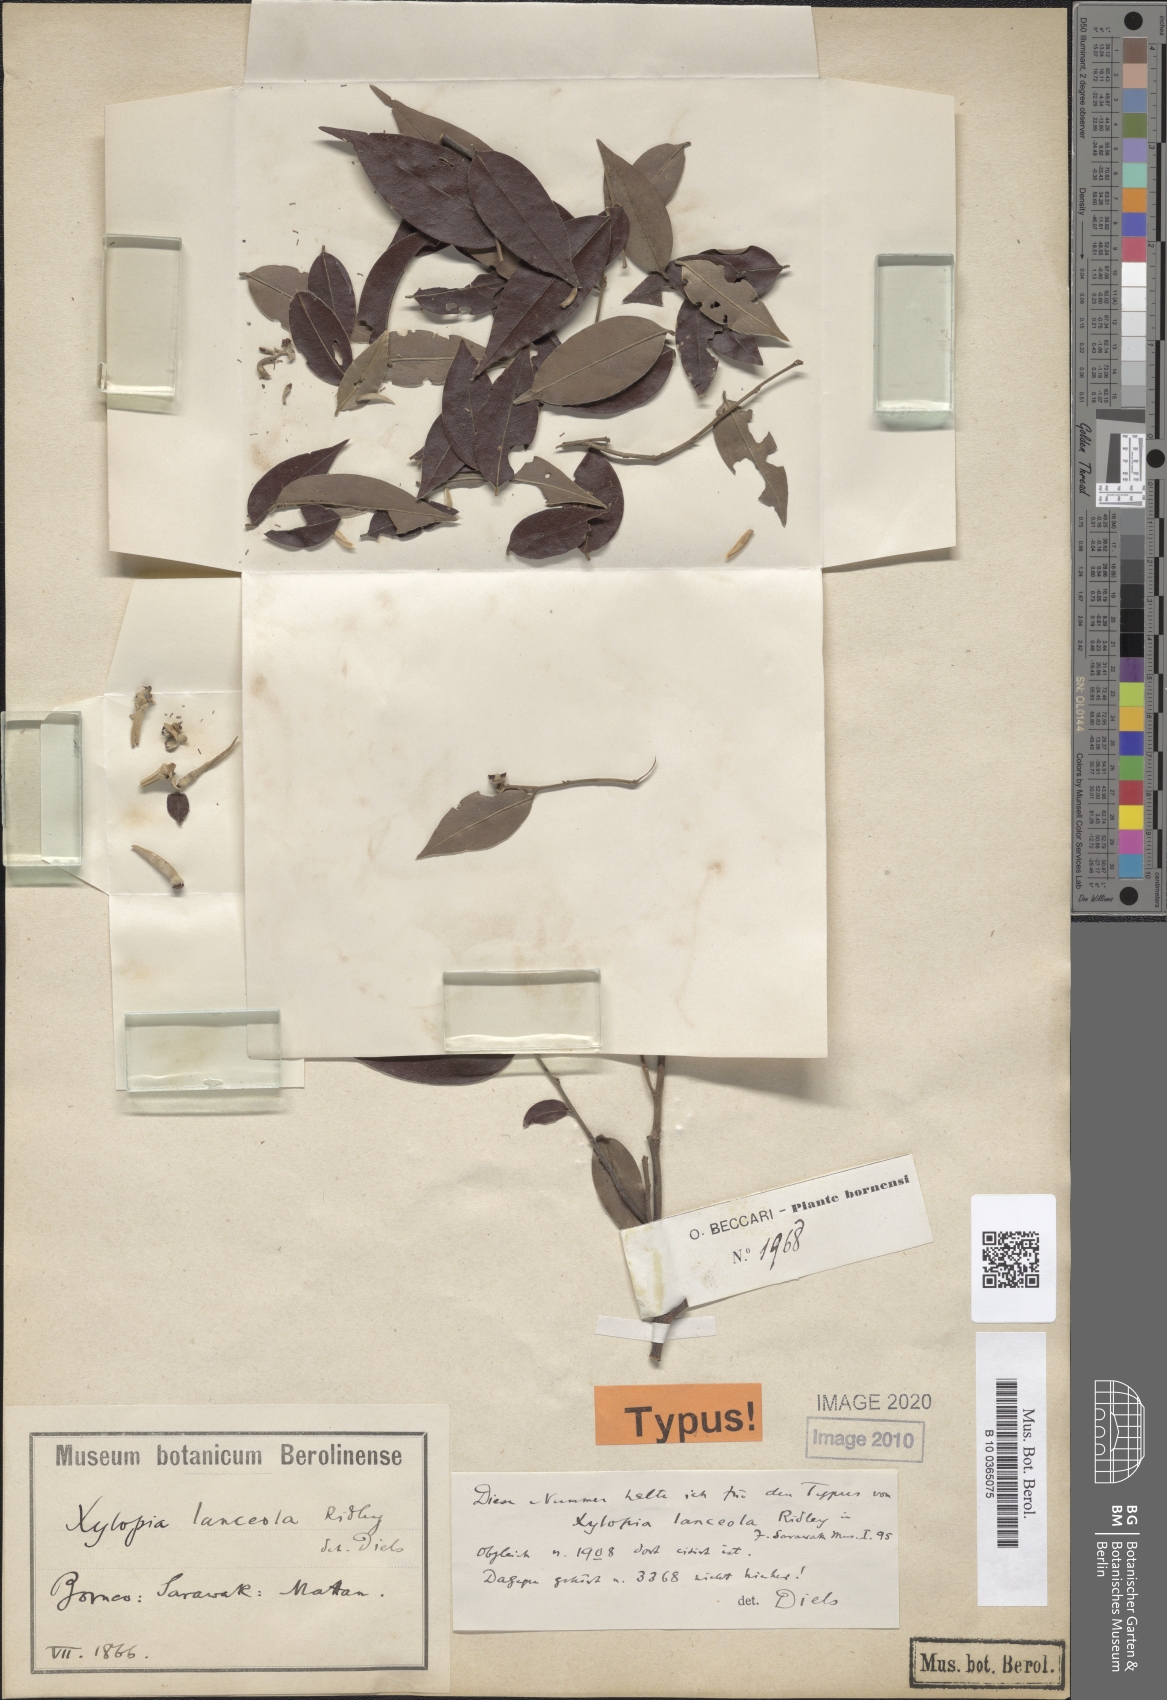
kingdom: Plantae
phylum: Tracheophyta
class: Magnoliopsida
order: Magnoliales
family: Annonaceae
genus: Xylopia
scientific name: Xylopia lanceola
